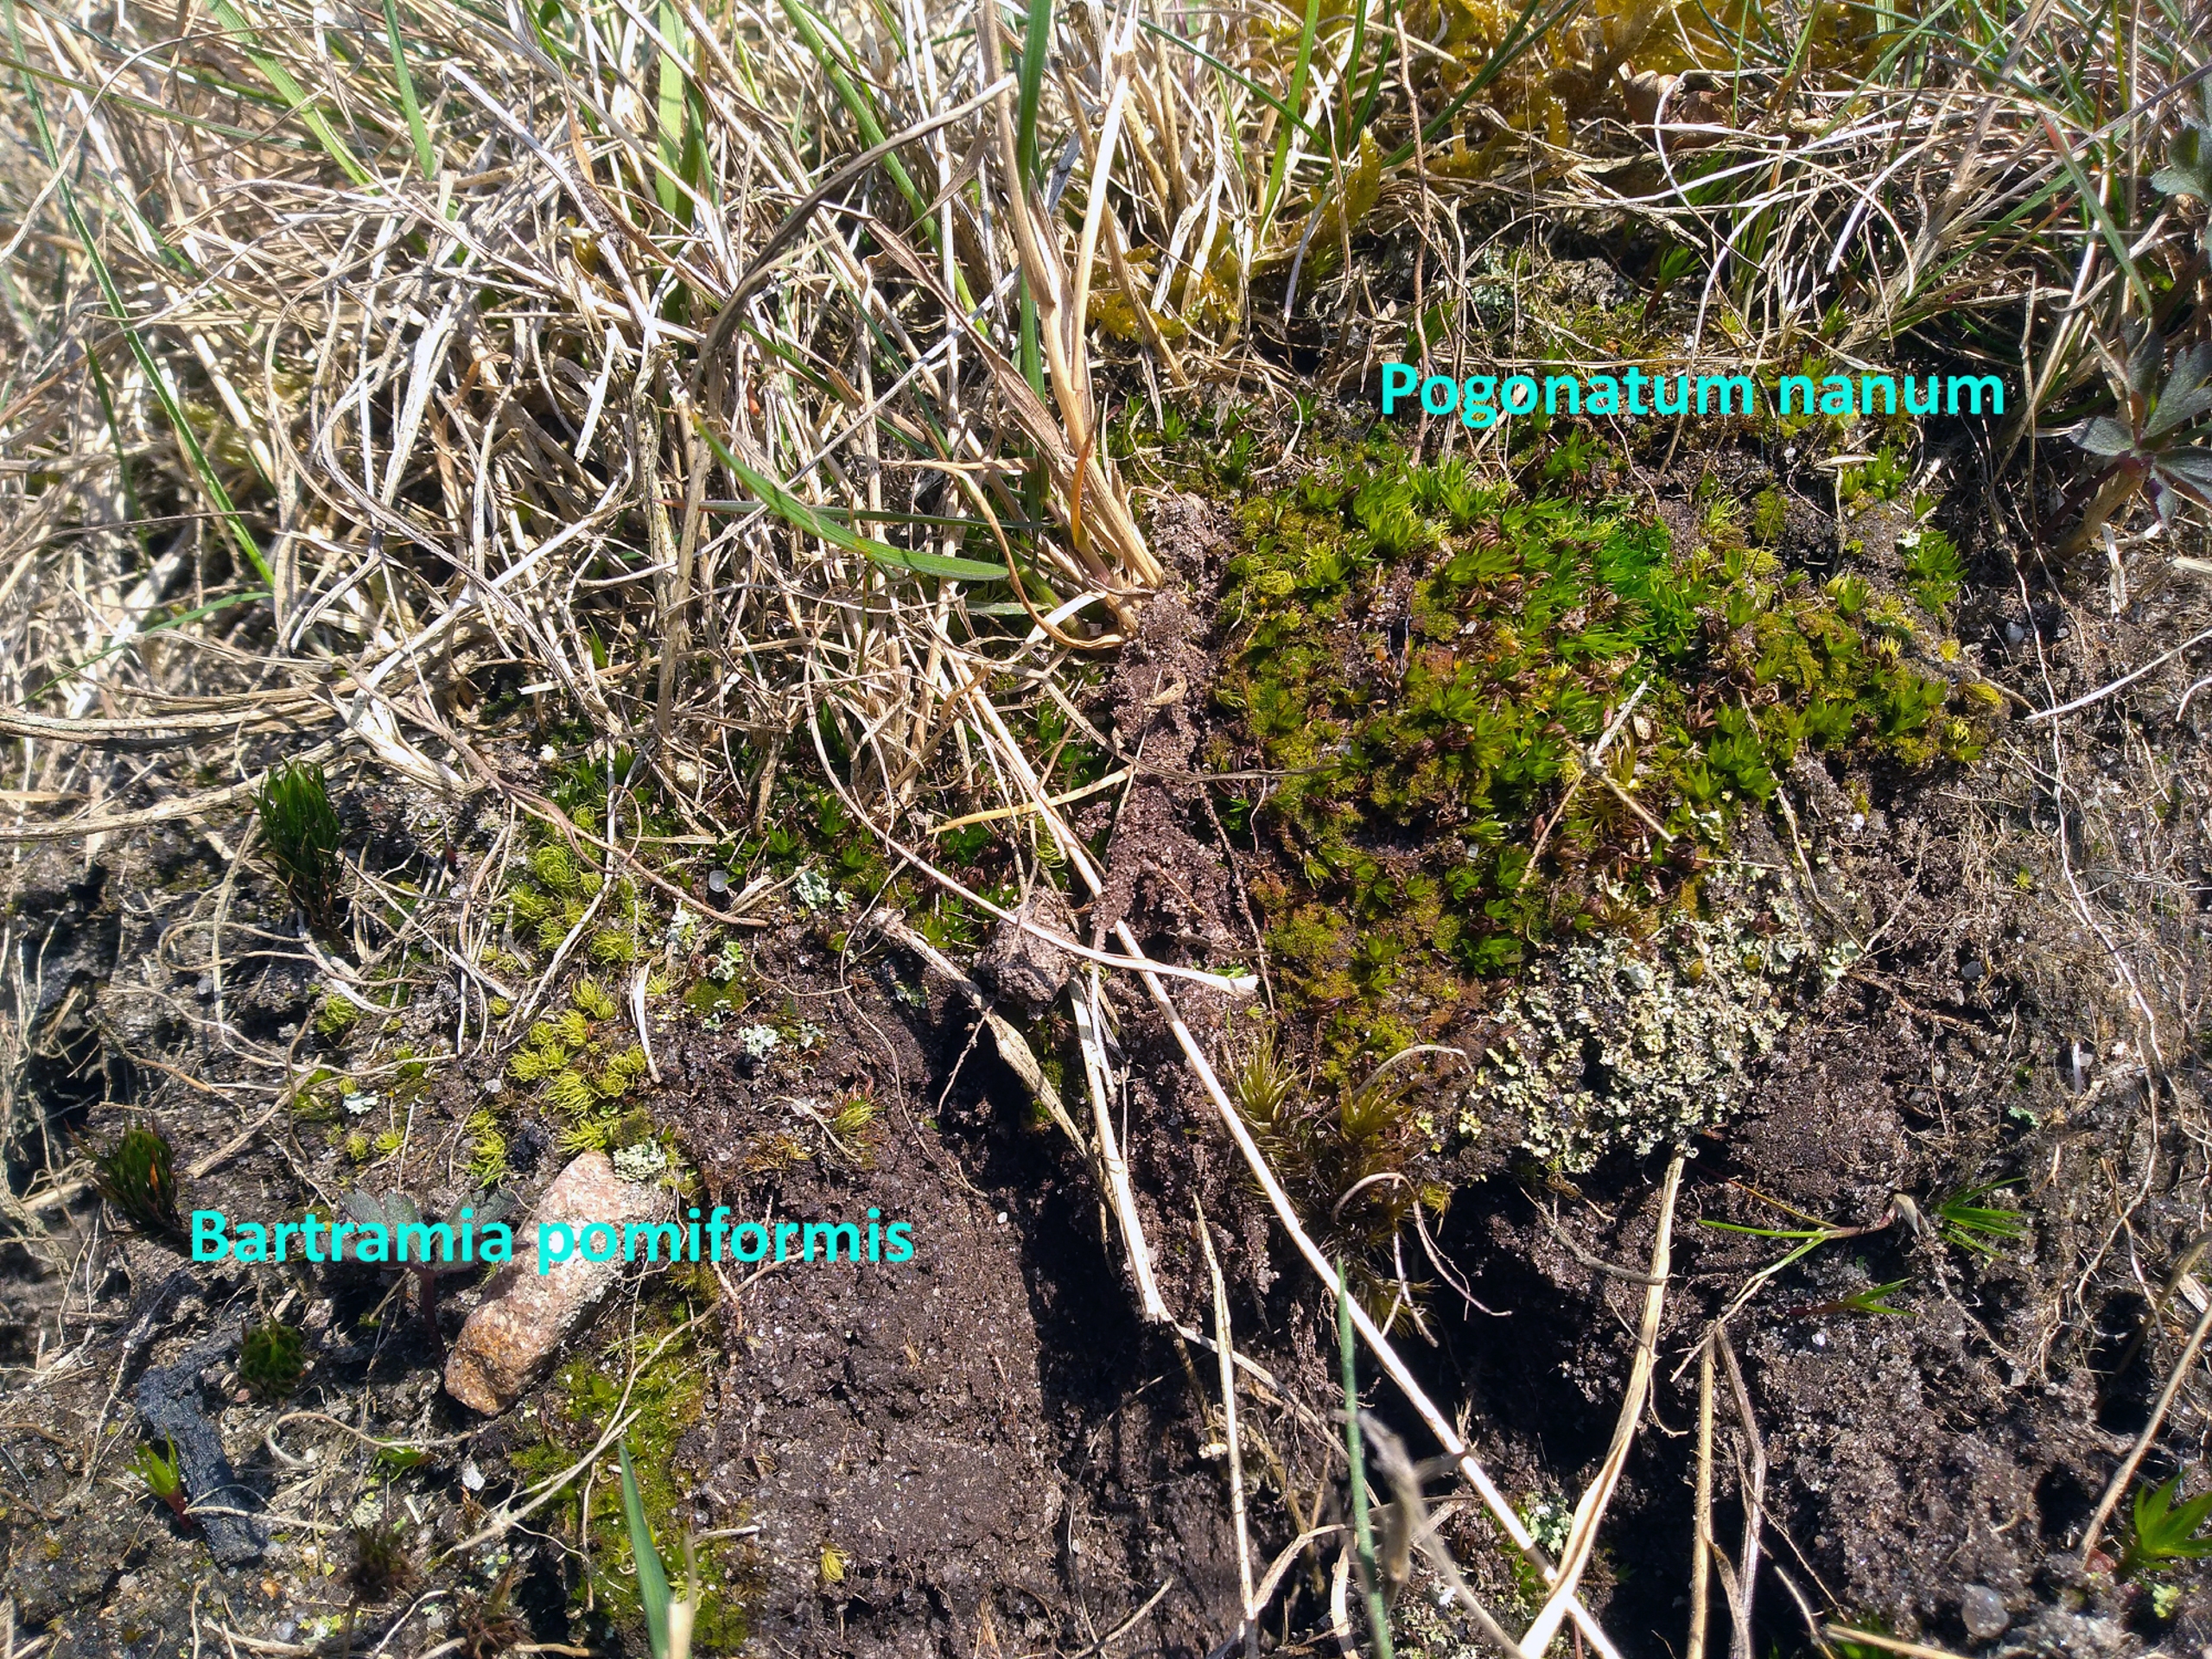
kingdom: Plantae
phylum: Bryophyta
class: Bryopsida
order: Bartramiales
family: Bartramiaceae
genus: Bartramia
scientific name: Bartramia pomiformis
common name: Gulgrøn kuglekapsel
